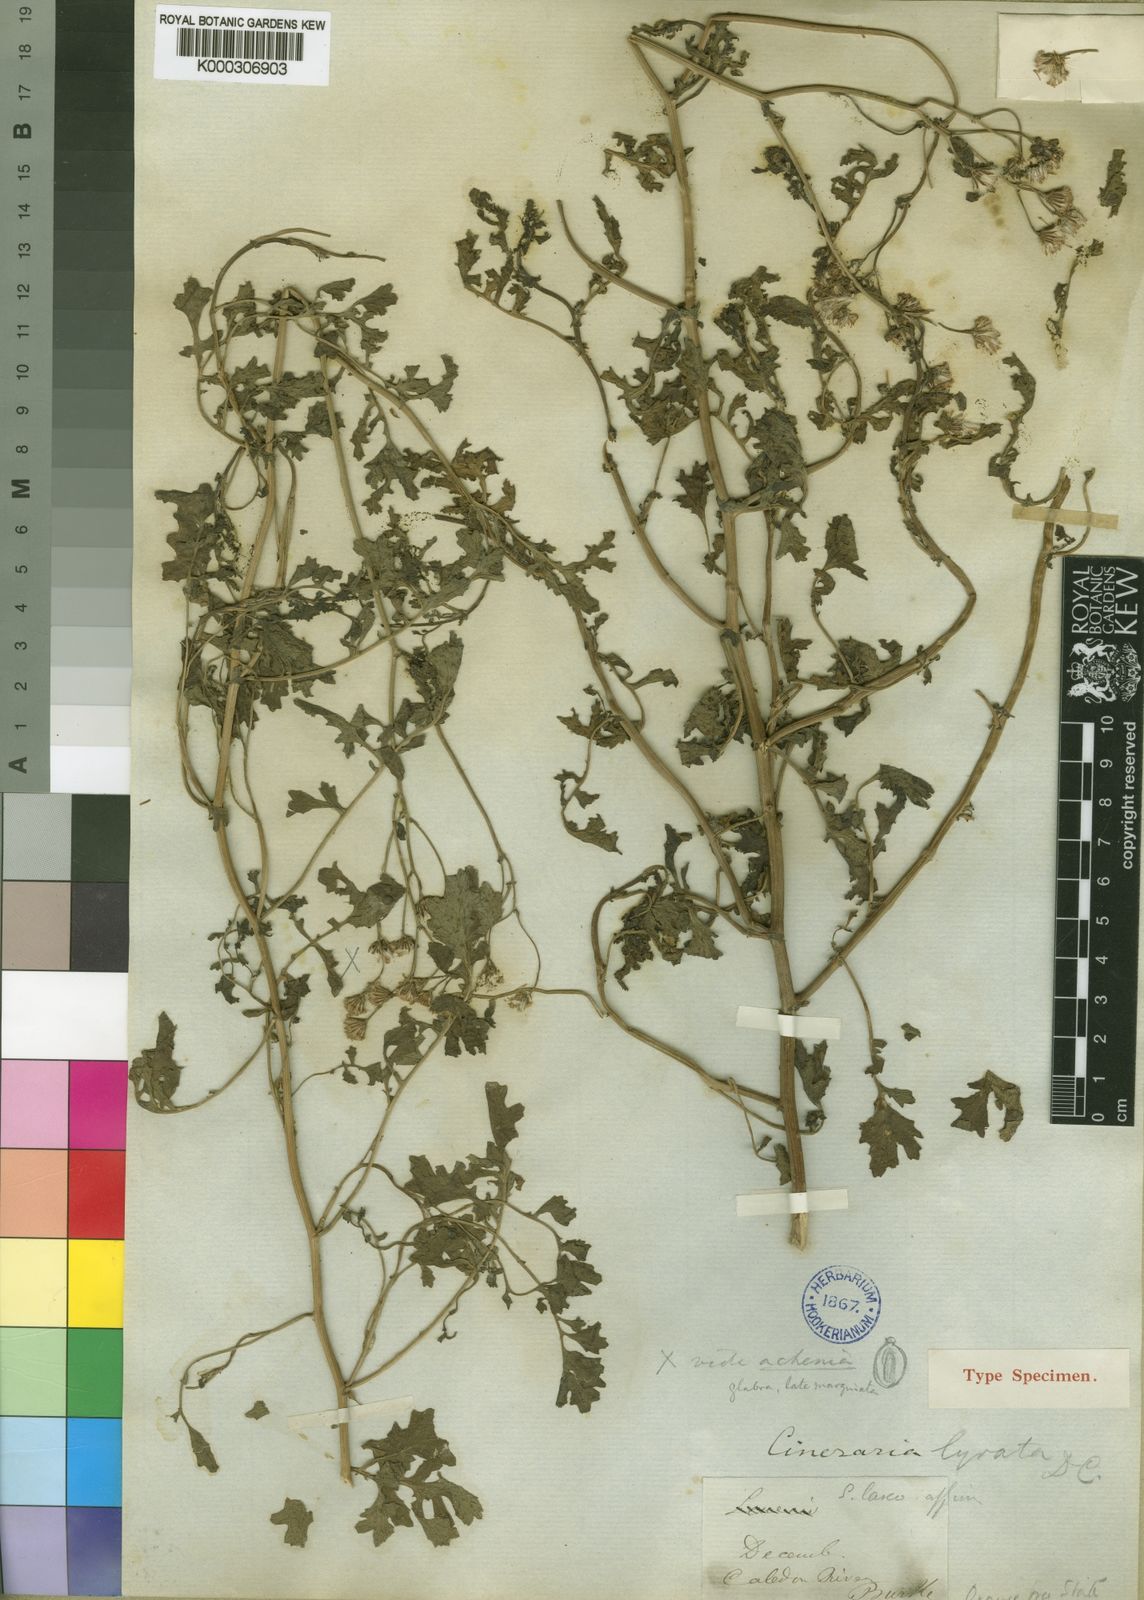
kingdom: Plantae
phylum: Tracheophyta
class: Magnoliopsida
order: Asterales
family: Asteraceae
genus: Cineraria
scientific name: Cineraria lyratiformis
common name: Cineraria
